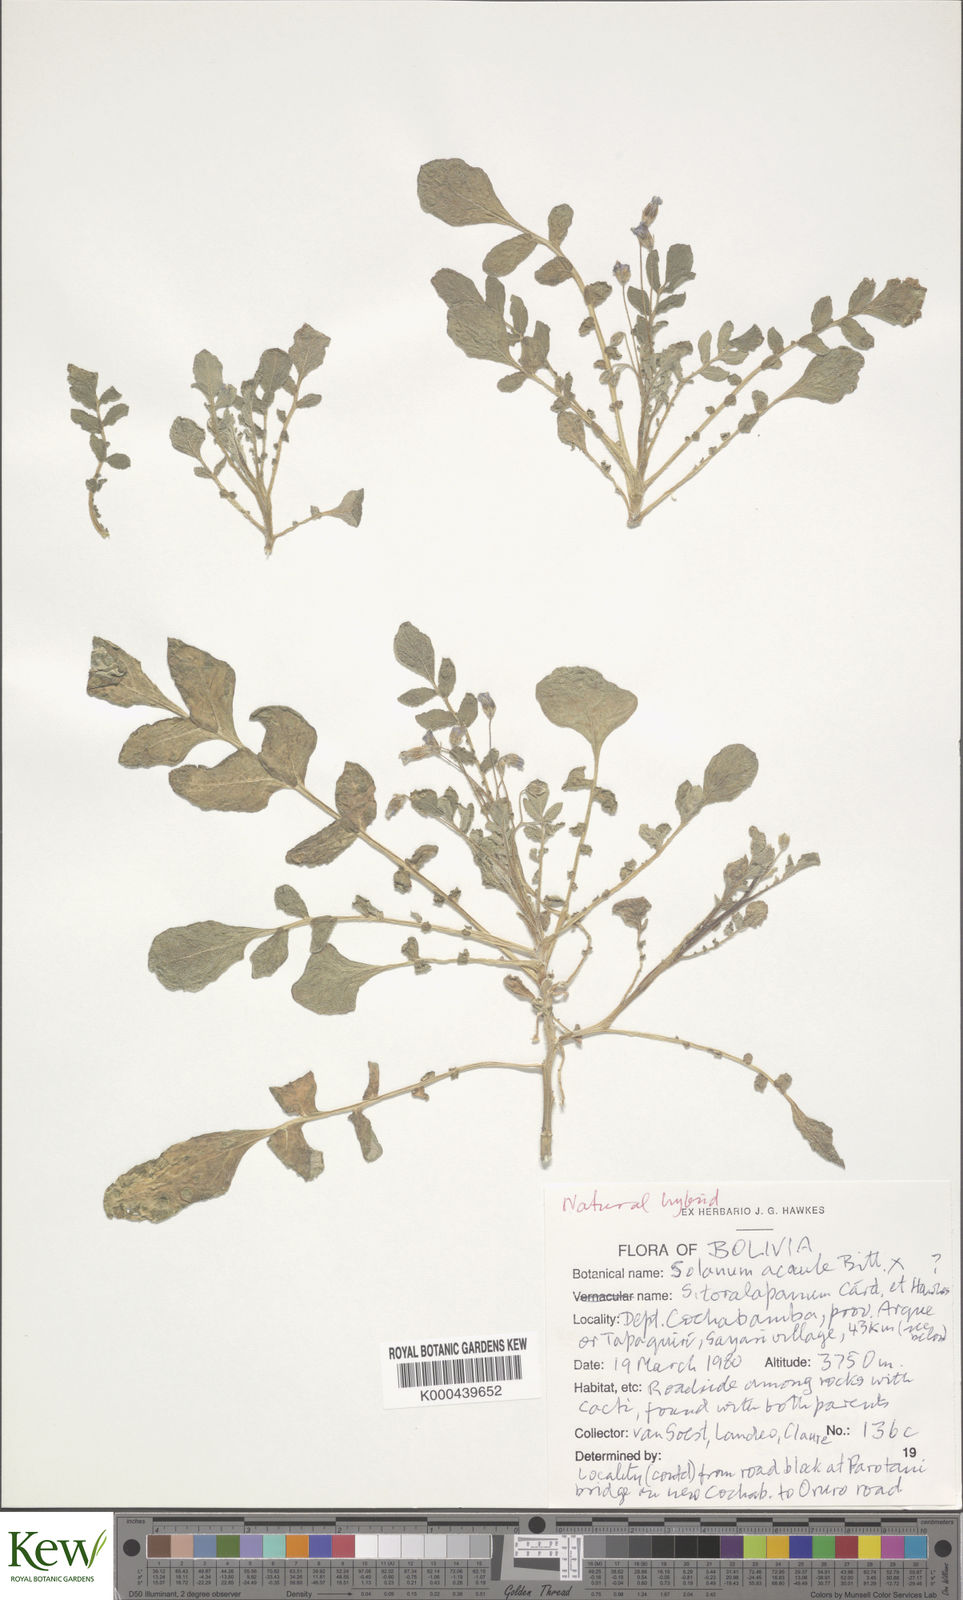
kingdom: Plantae
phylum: Tracheophyta
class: Magnoliopsida
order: Solanales
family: Solanaceae
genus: Solanum
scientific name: Solanum acaule
